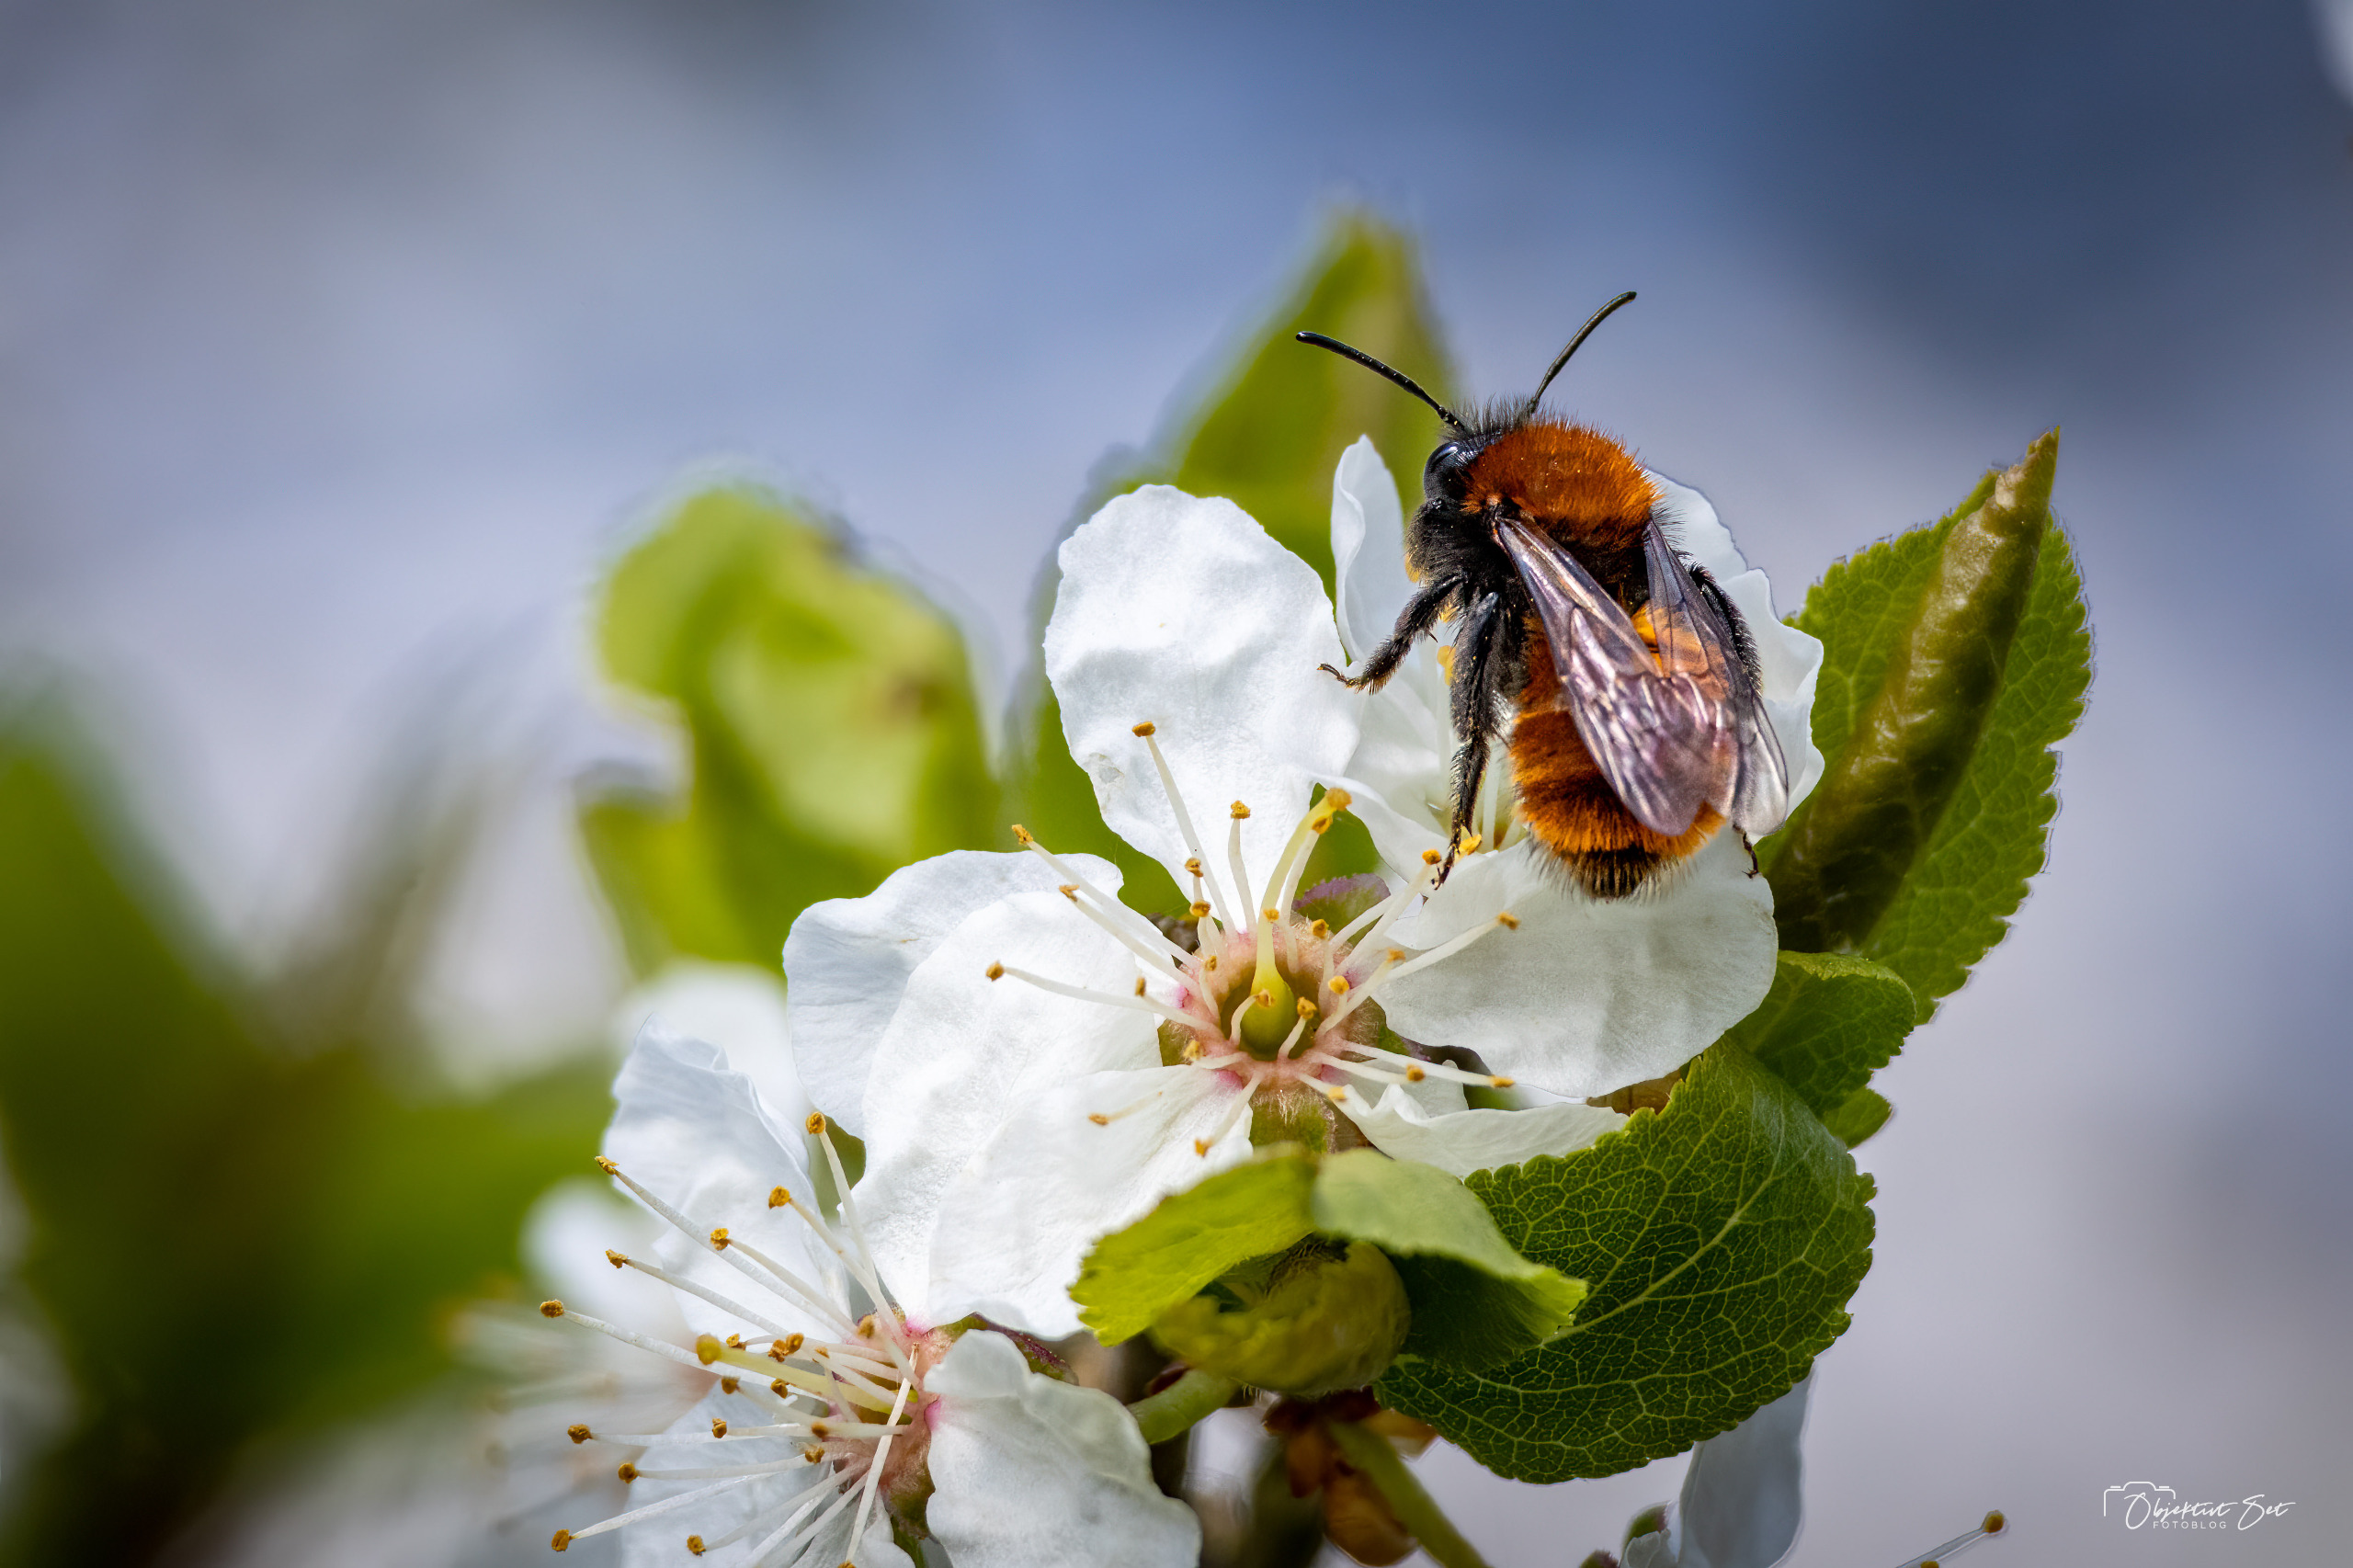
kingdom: Animalia
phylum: Arthropoda
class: Insecta
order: Hymenoptera
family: Andrenidae
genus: Andrena
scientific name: Andrena fulva
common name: Rødpelset jordbi
